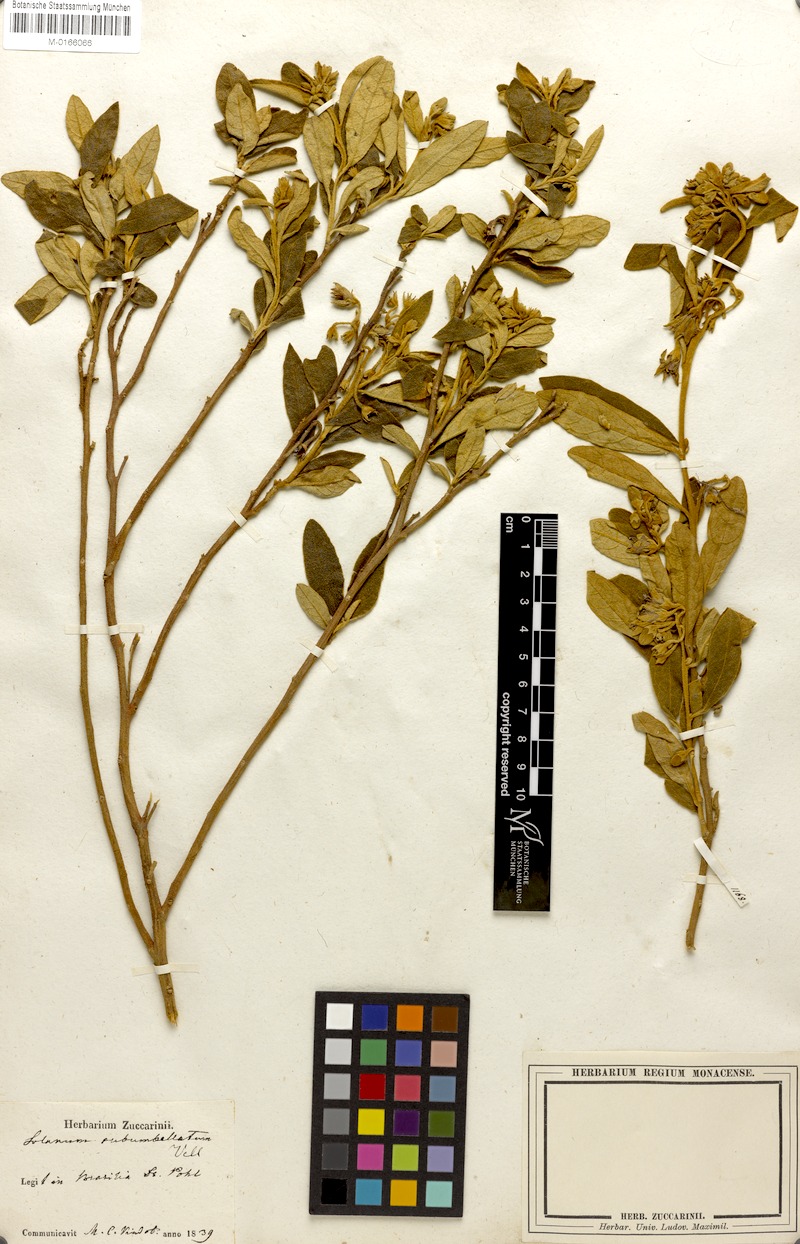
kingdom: Plantae
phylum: Tracheophyta
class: Magnoliopsida
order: Solanales
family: Solanaceae
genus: Solanum
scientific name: Solanum subumbellatum
